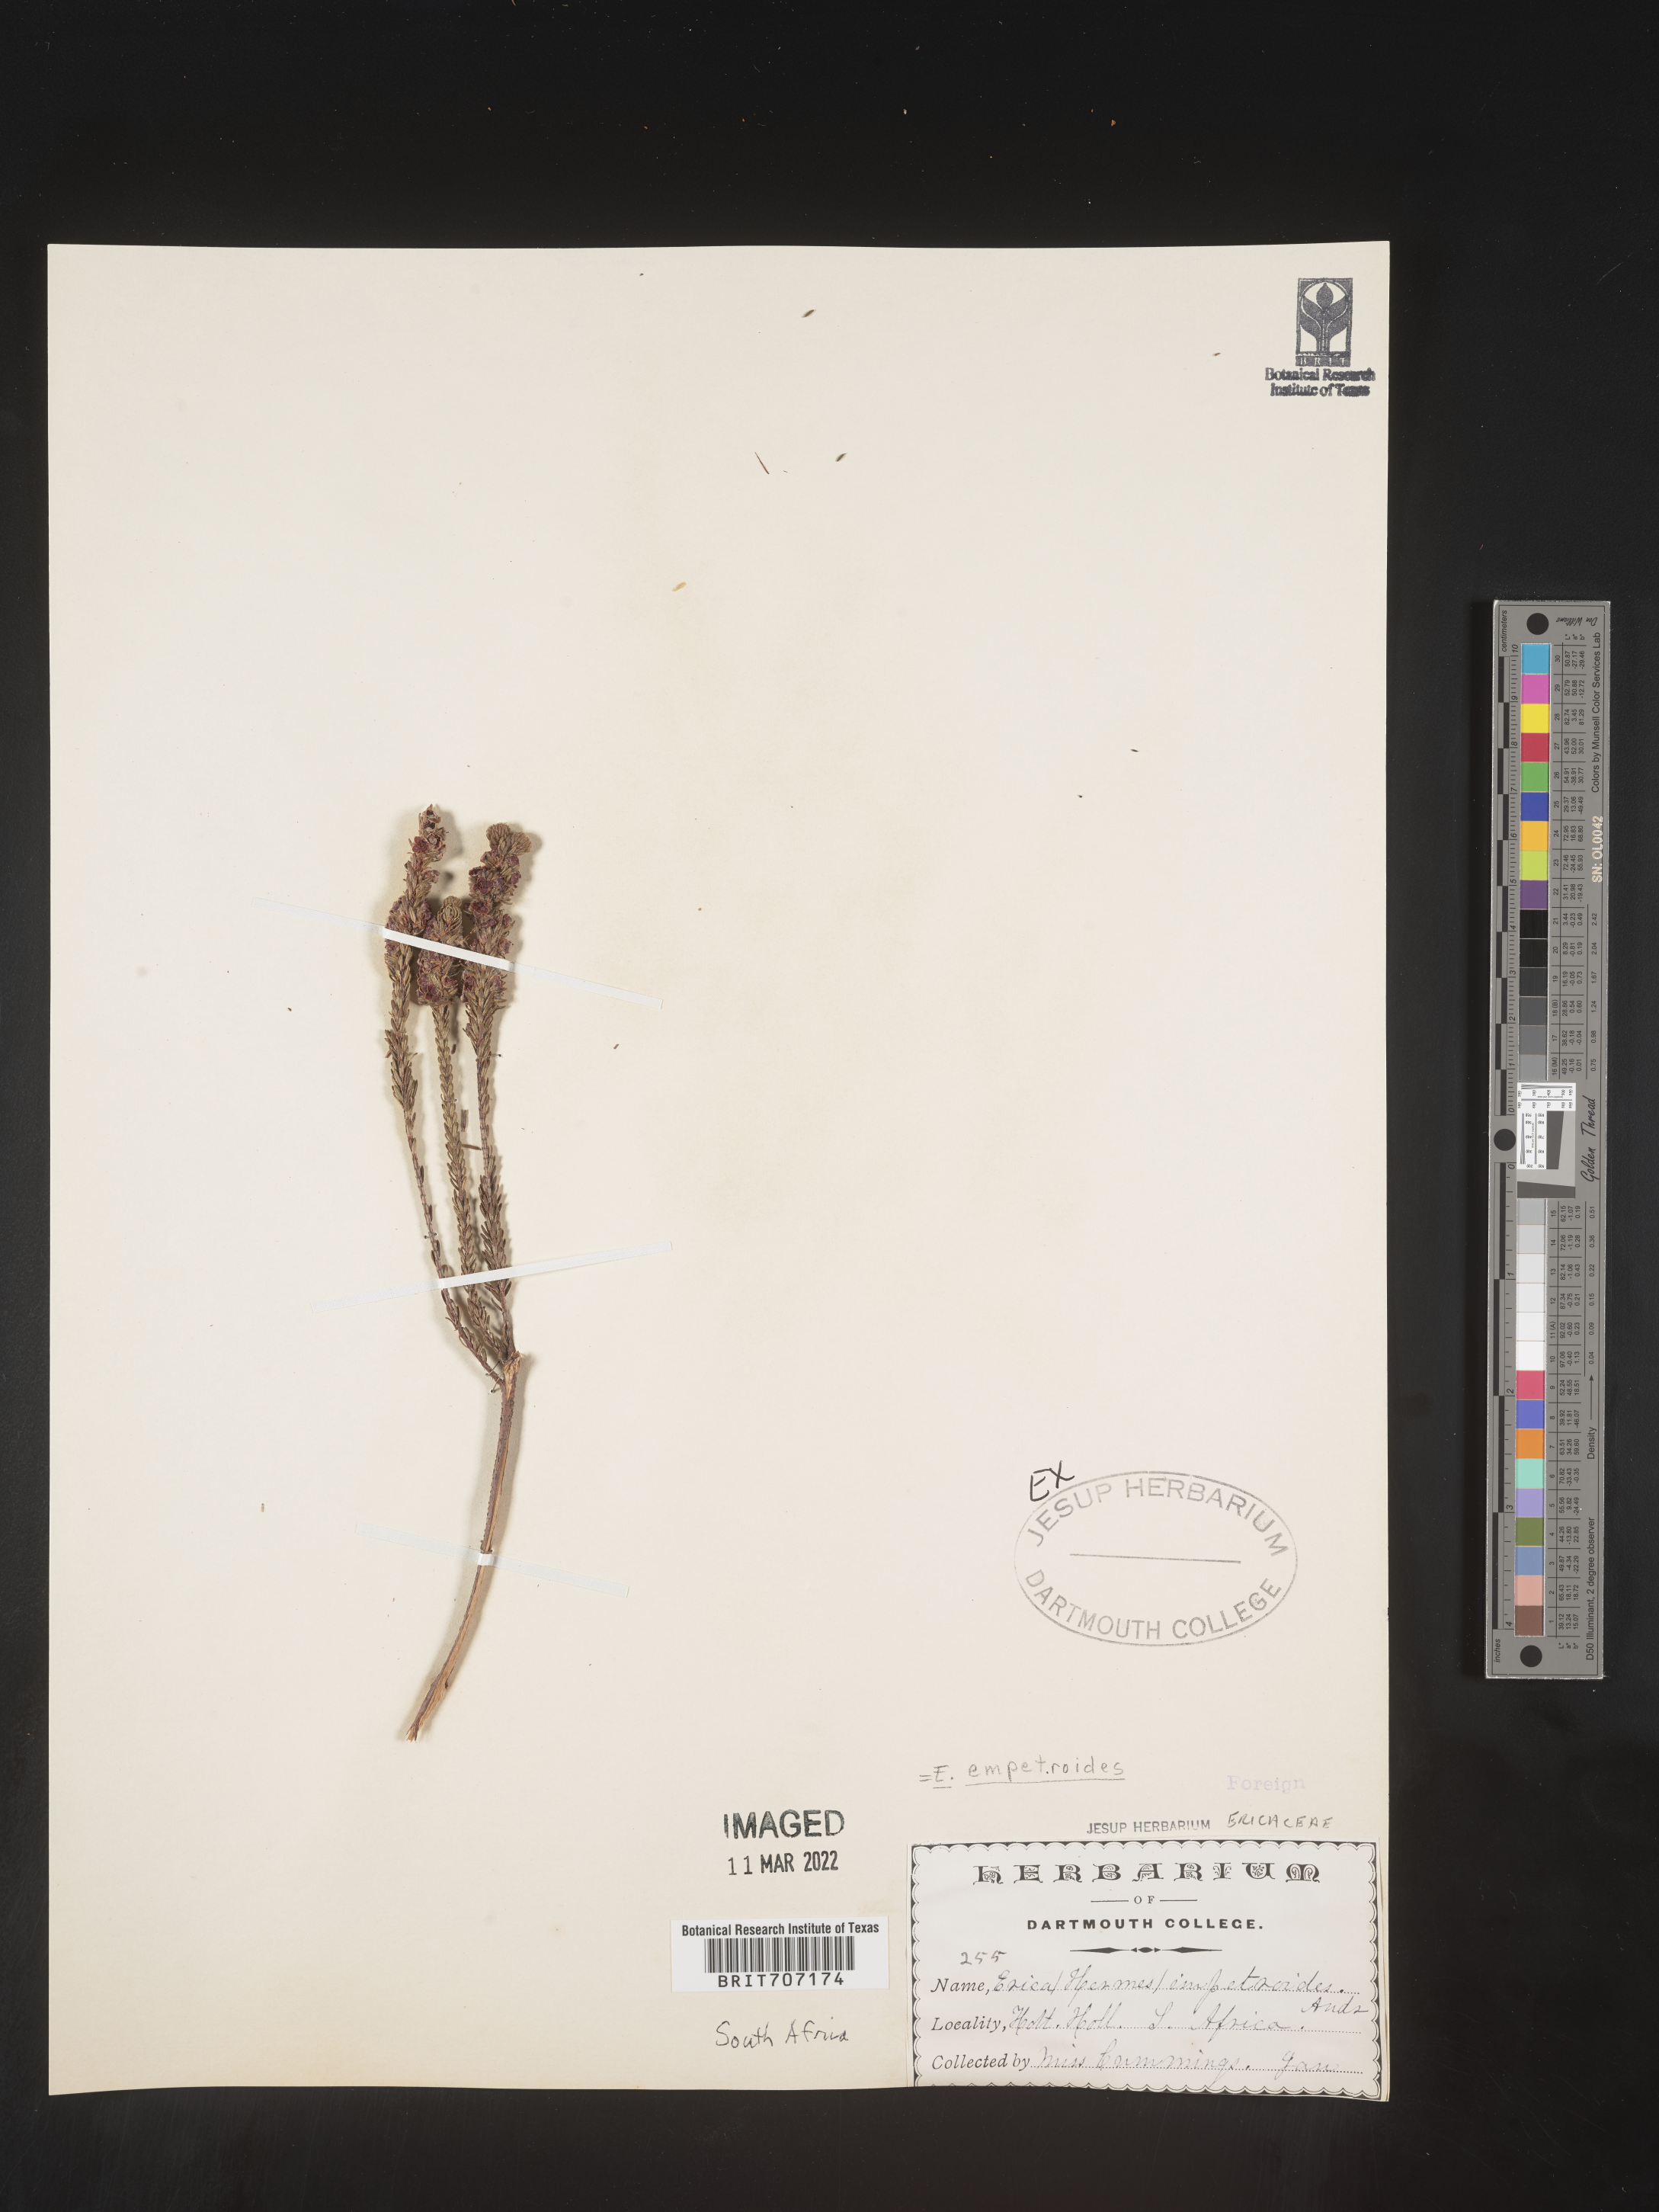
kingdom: Plantae
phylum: Tracheophyta
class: Magnoliopsida
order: Ericales
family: Ericaceae
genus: Erica
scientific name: Erica
